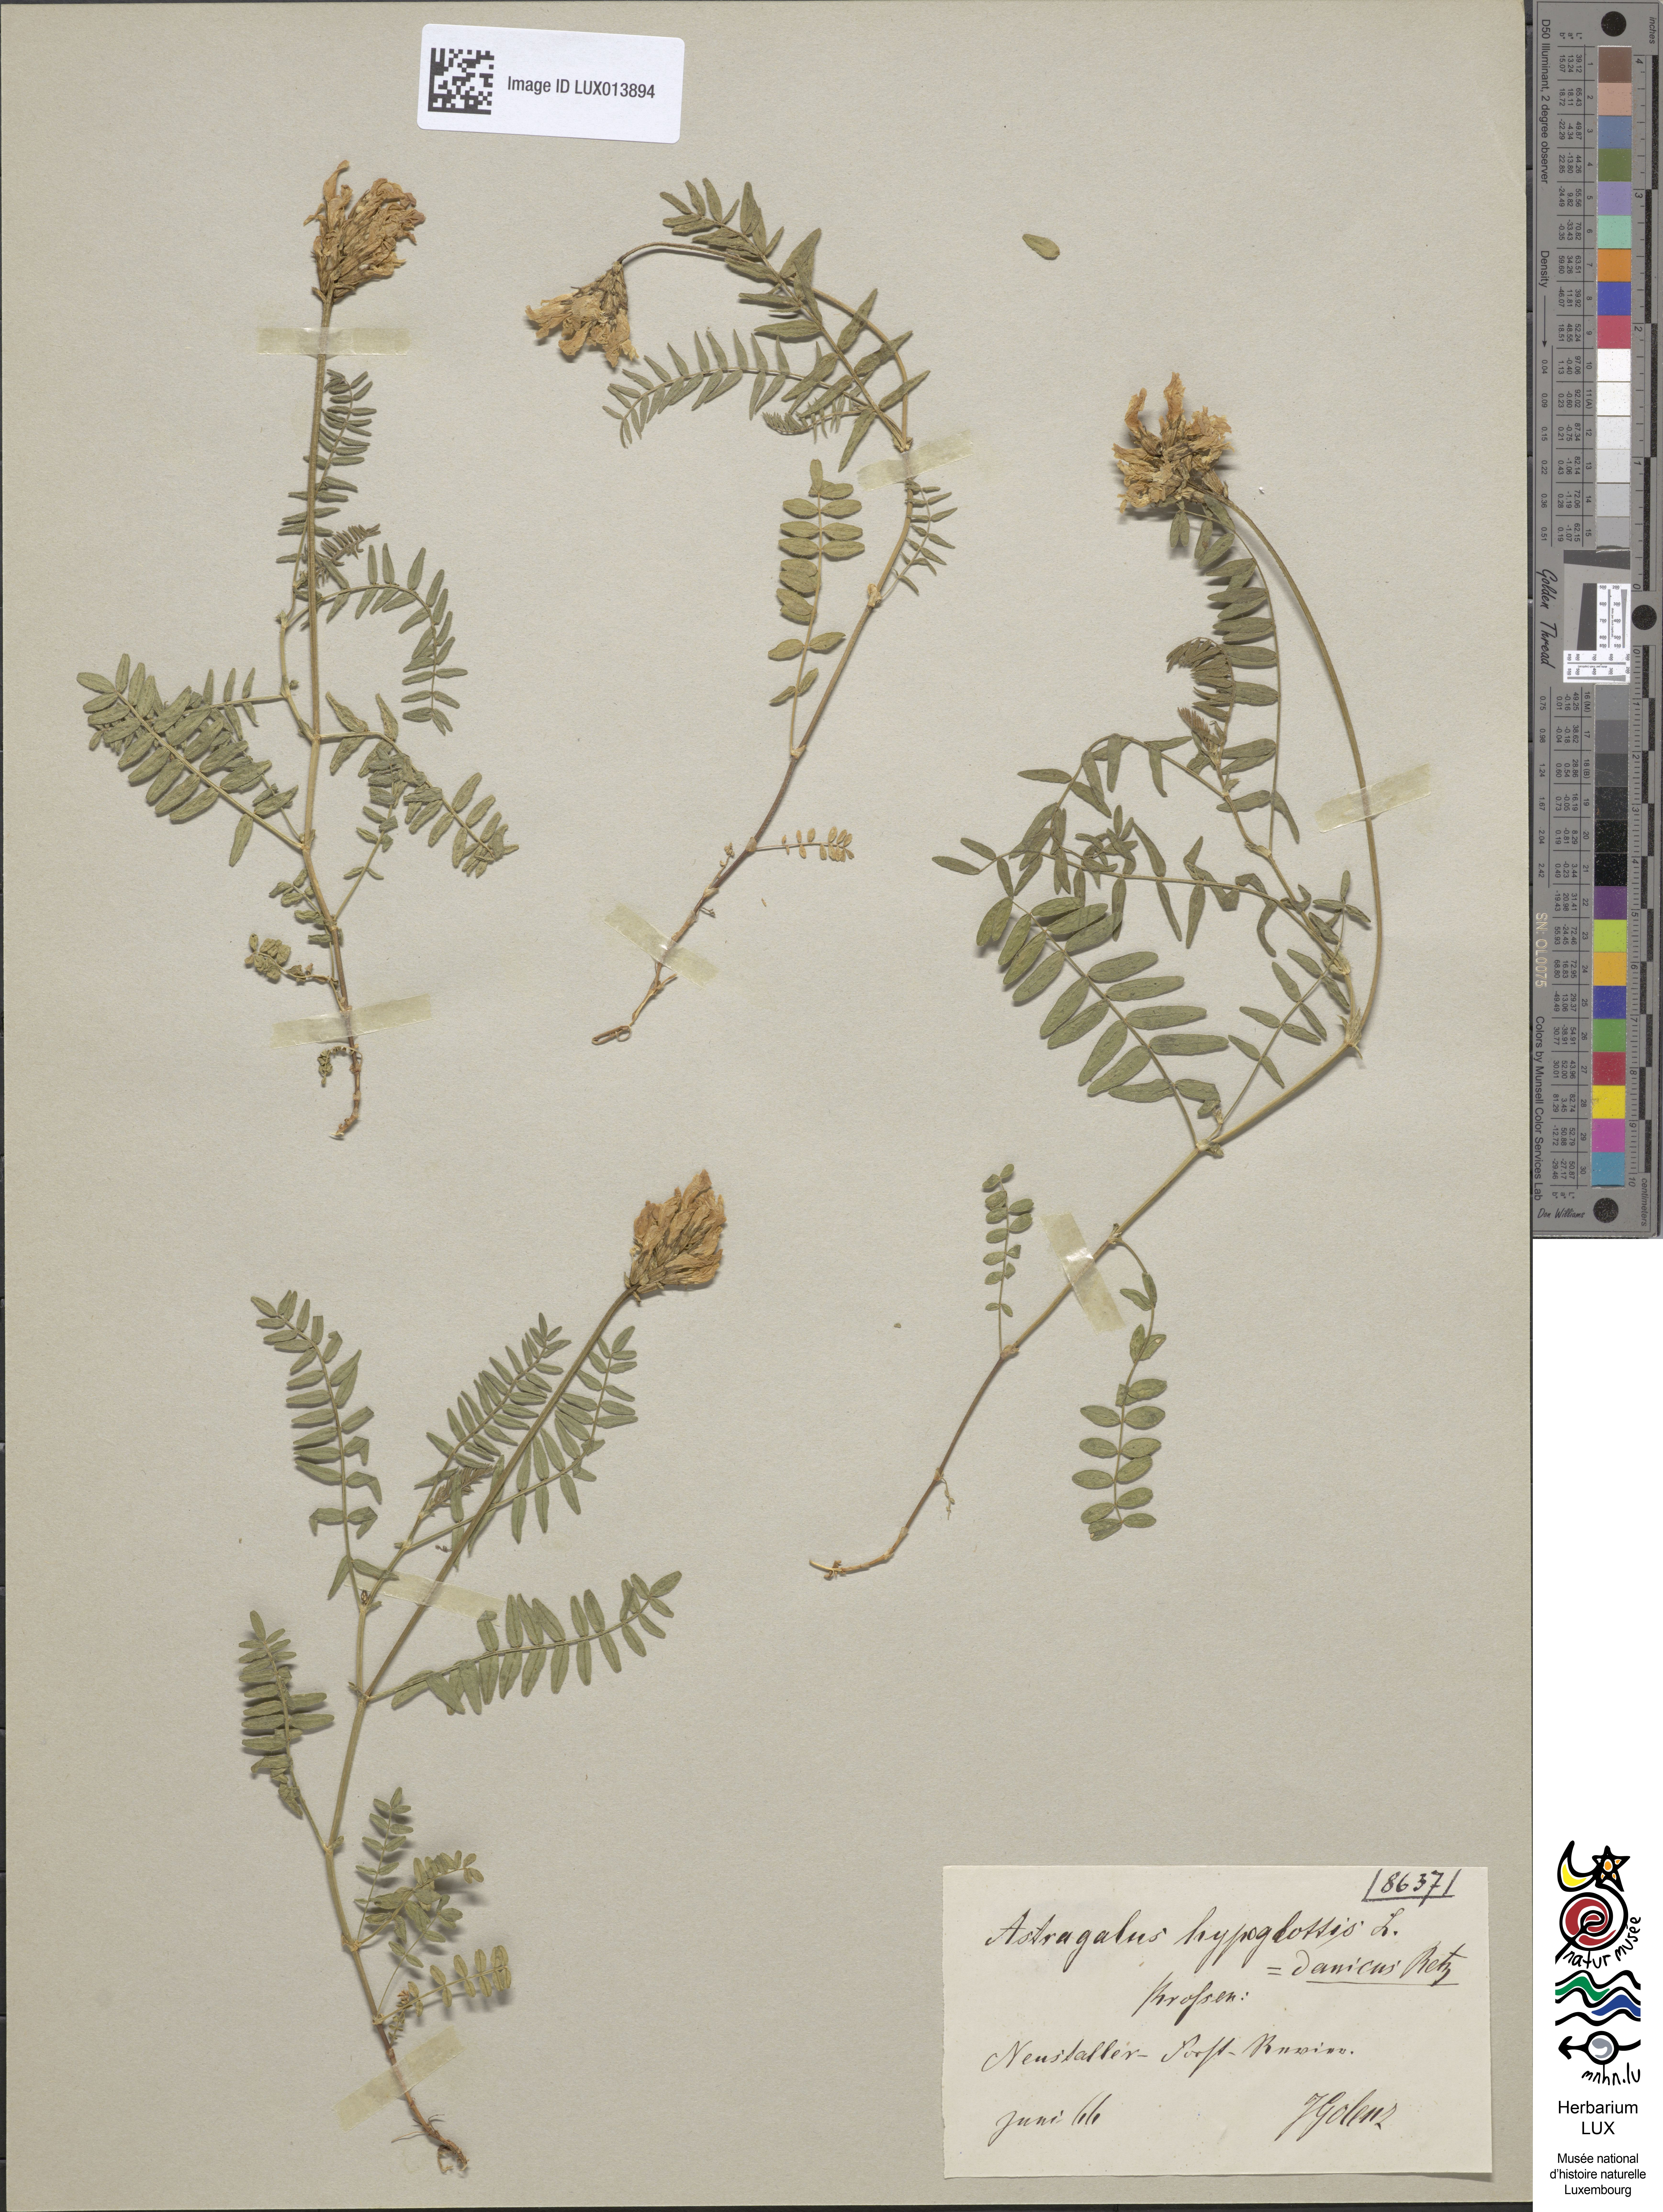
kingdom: Plantae
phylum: Tracheophyta
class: Magnoliopsida
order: Fabales
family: Fabaceae
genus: Astragalus
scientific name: Astragalus hypoglottis
